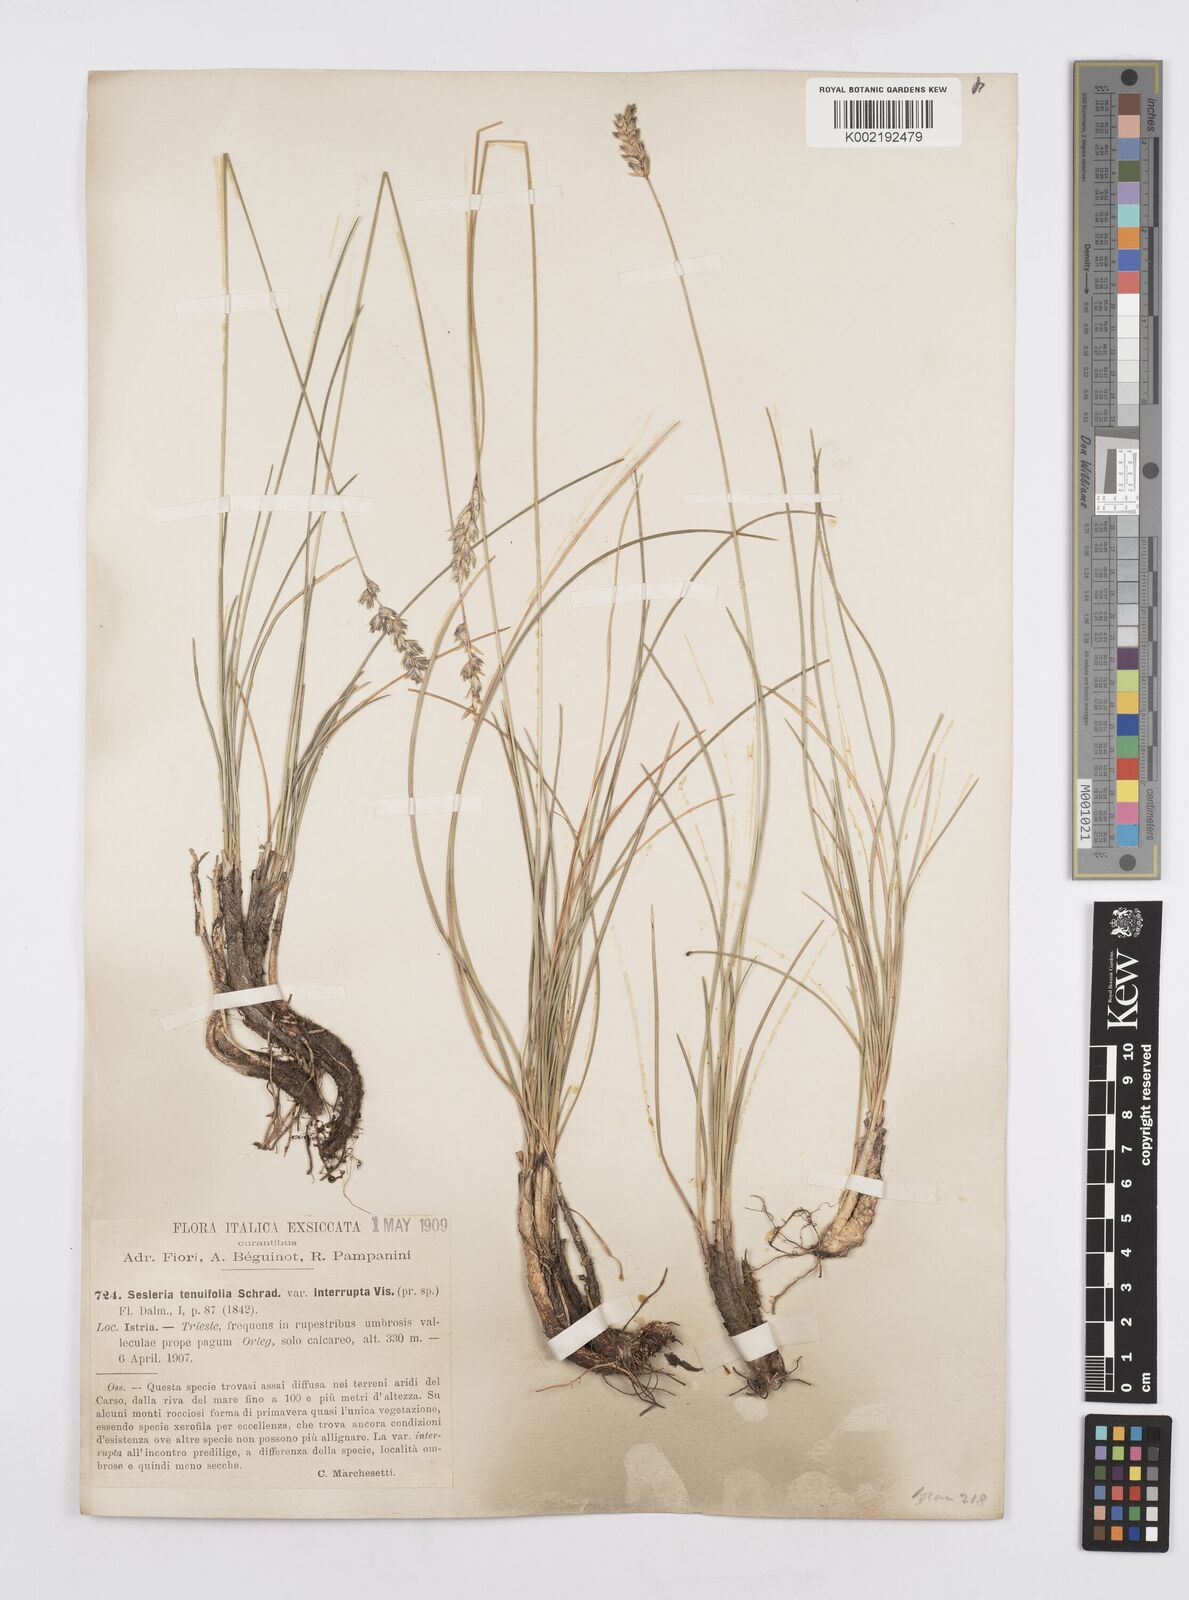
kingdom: Plantae
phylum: Tracheophyta
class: Liliopsida
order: Poales
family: Poaceae
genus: Sesleria
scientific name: Sesleria juncifolia
